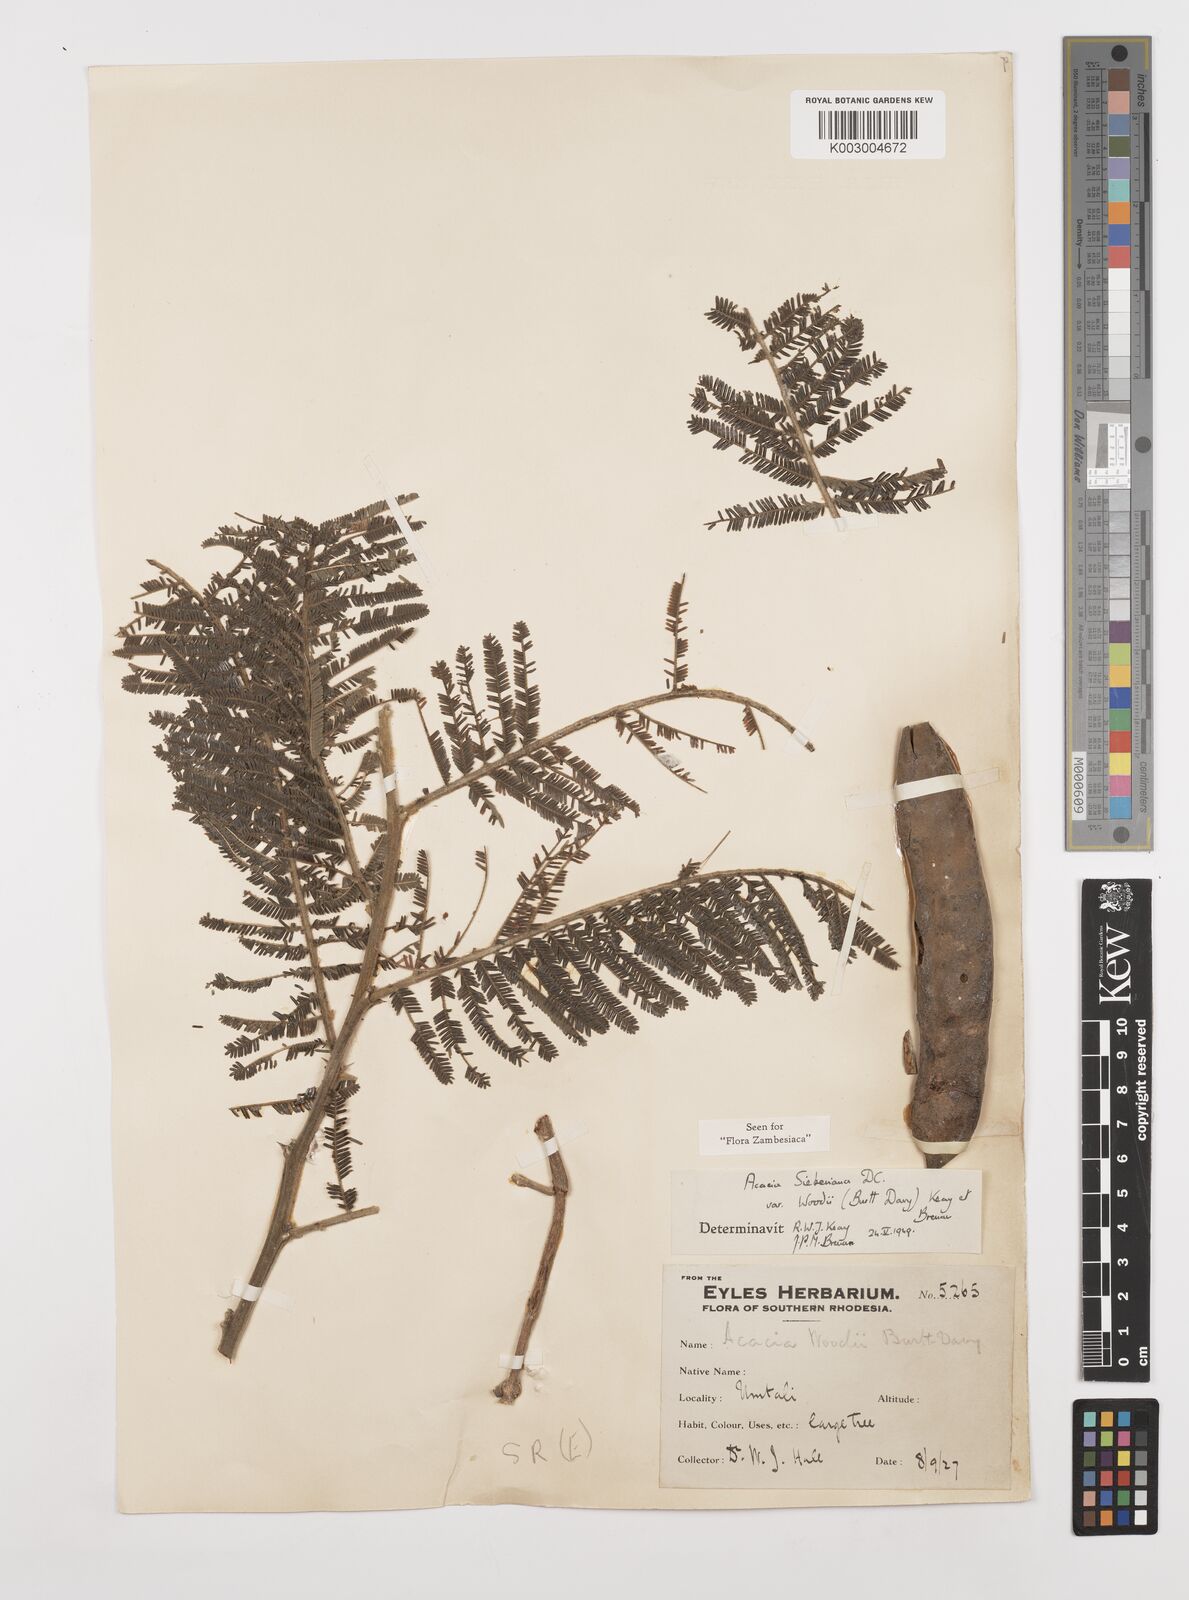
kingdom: Plantae
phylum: Tracheophyta
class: Magnoliopsida
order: Fabales
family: Fabaceae
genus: Vachellia
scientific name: Vachellia sieberiana
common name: Flat-topped thorn
